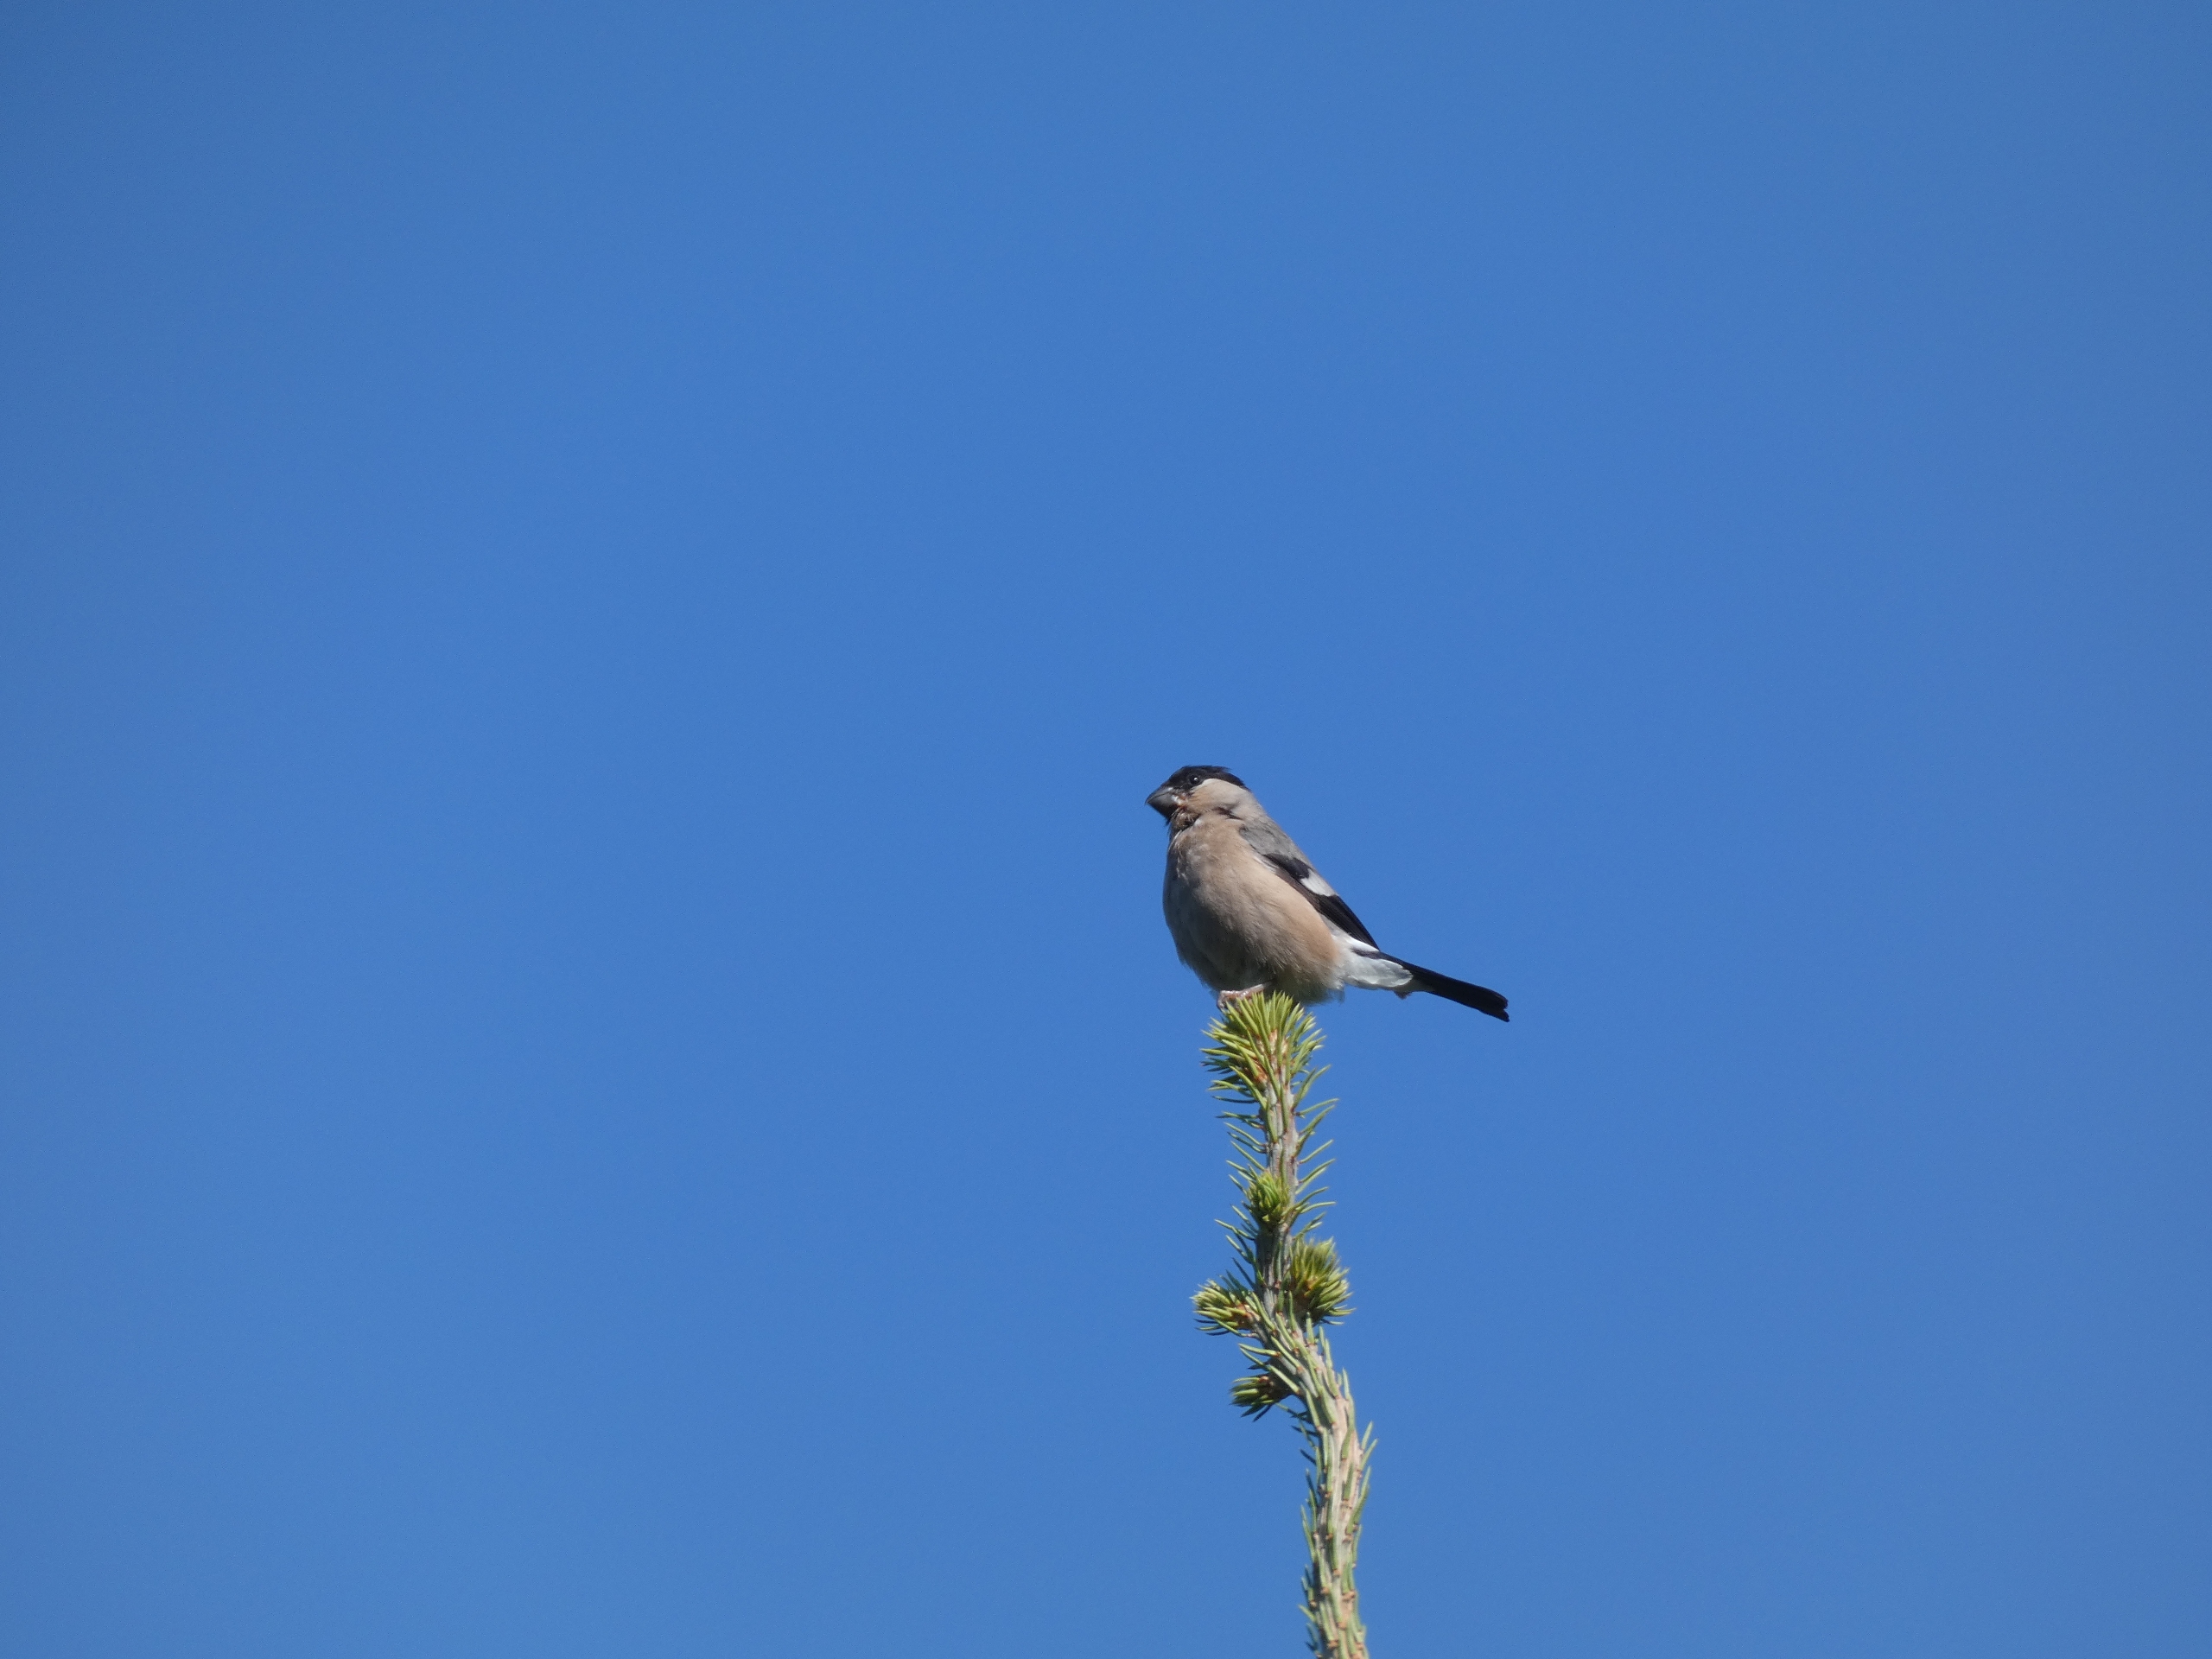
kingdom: Animalia
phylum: Chordata
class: Aves
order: Passeriformes
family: Fringillidae
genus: Pyrrhula
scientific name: Pyrrhula pyrrhula
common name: Dompap
